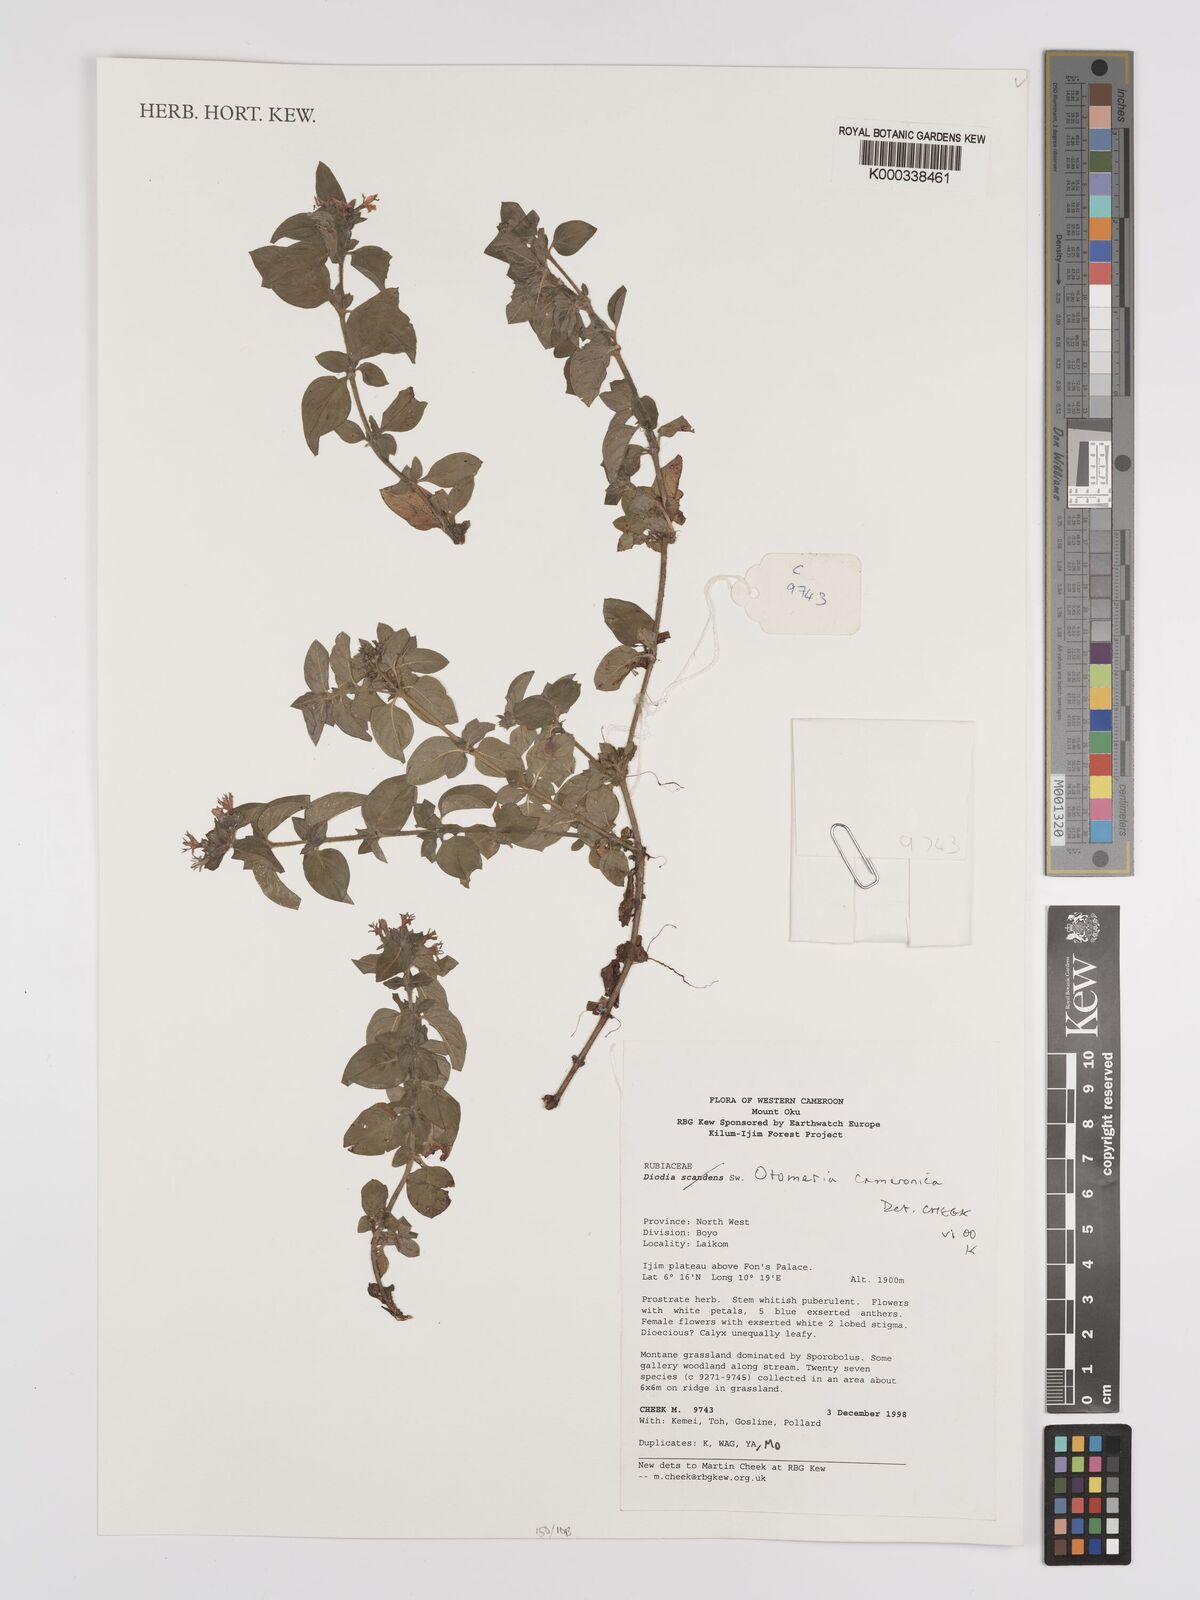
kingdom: Plantae
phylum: Tracheophyta
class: Magnoliopsida
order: Gentianales
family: Rubiaceae
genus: Otomeria
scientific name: Otomeria cameronica
